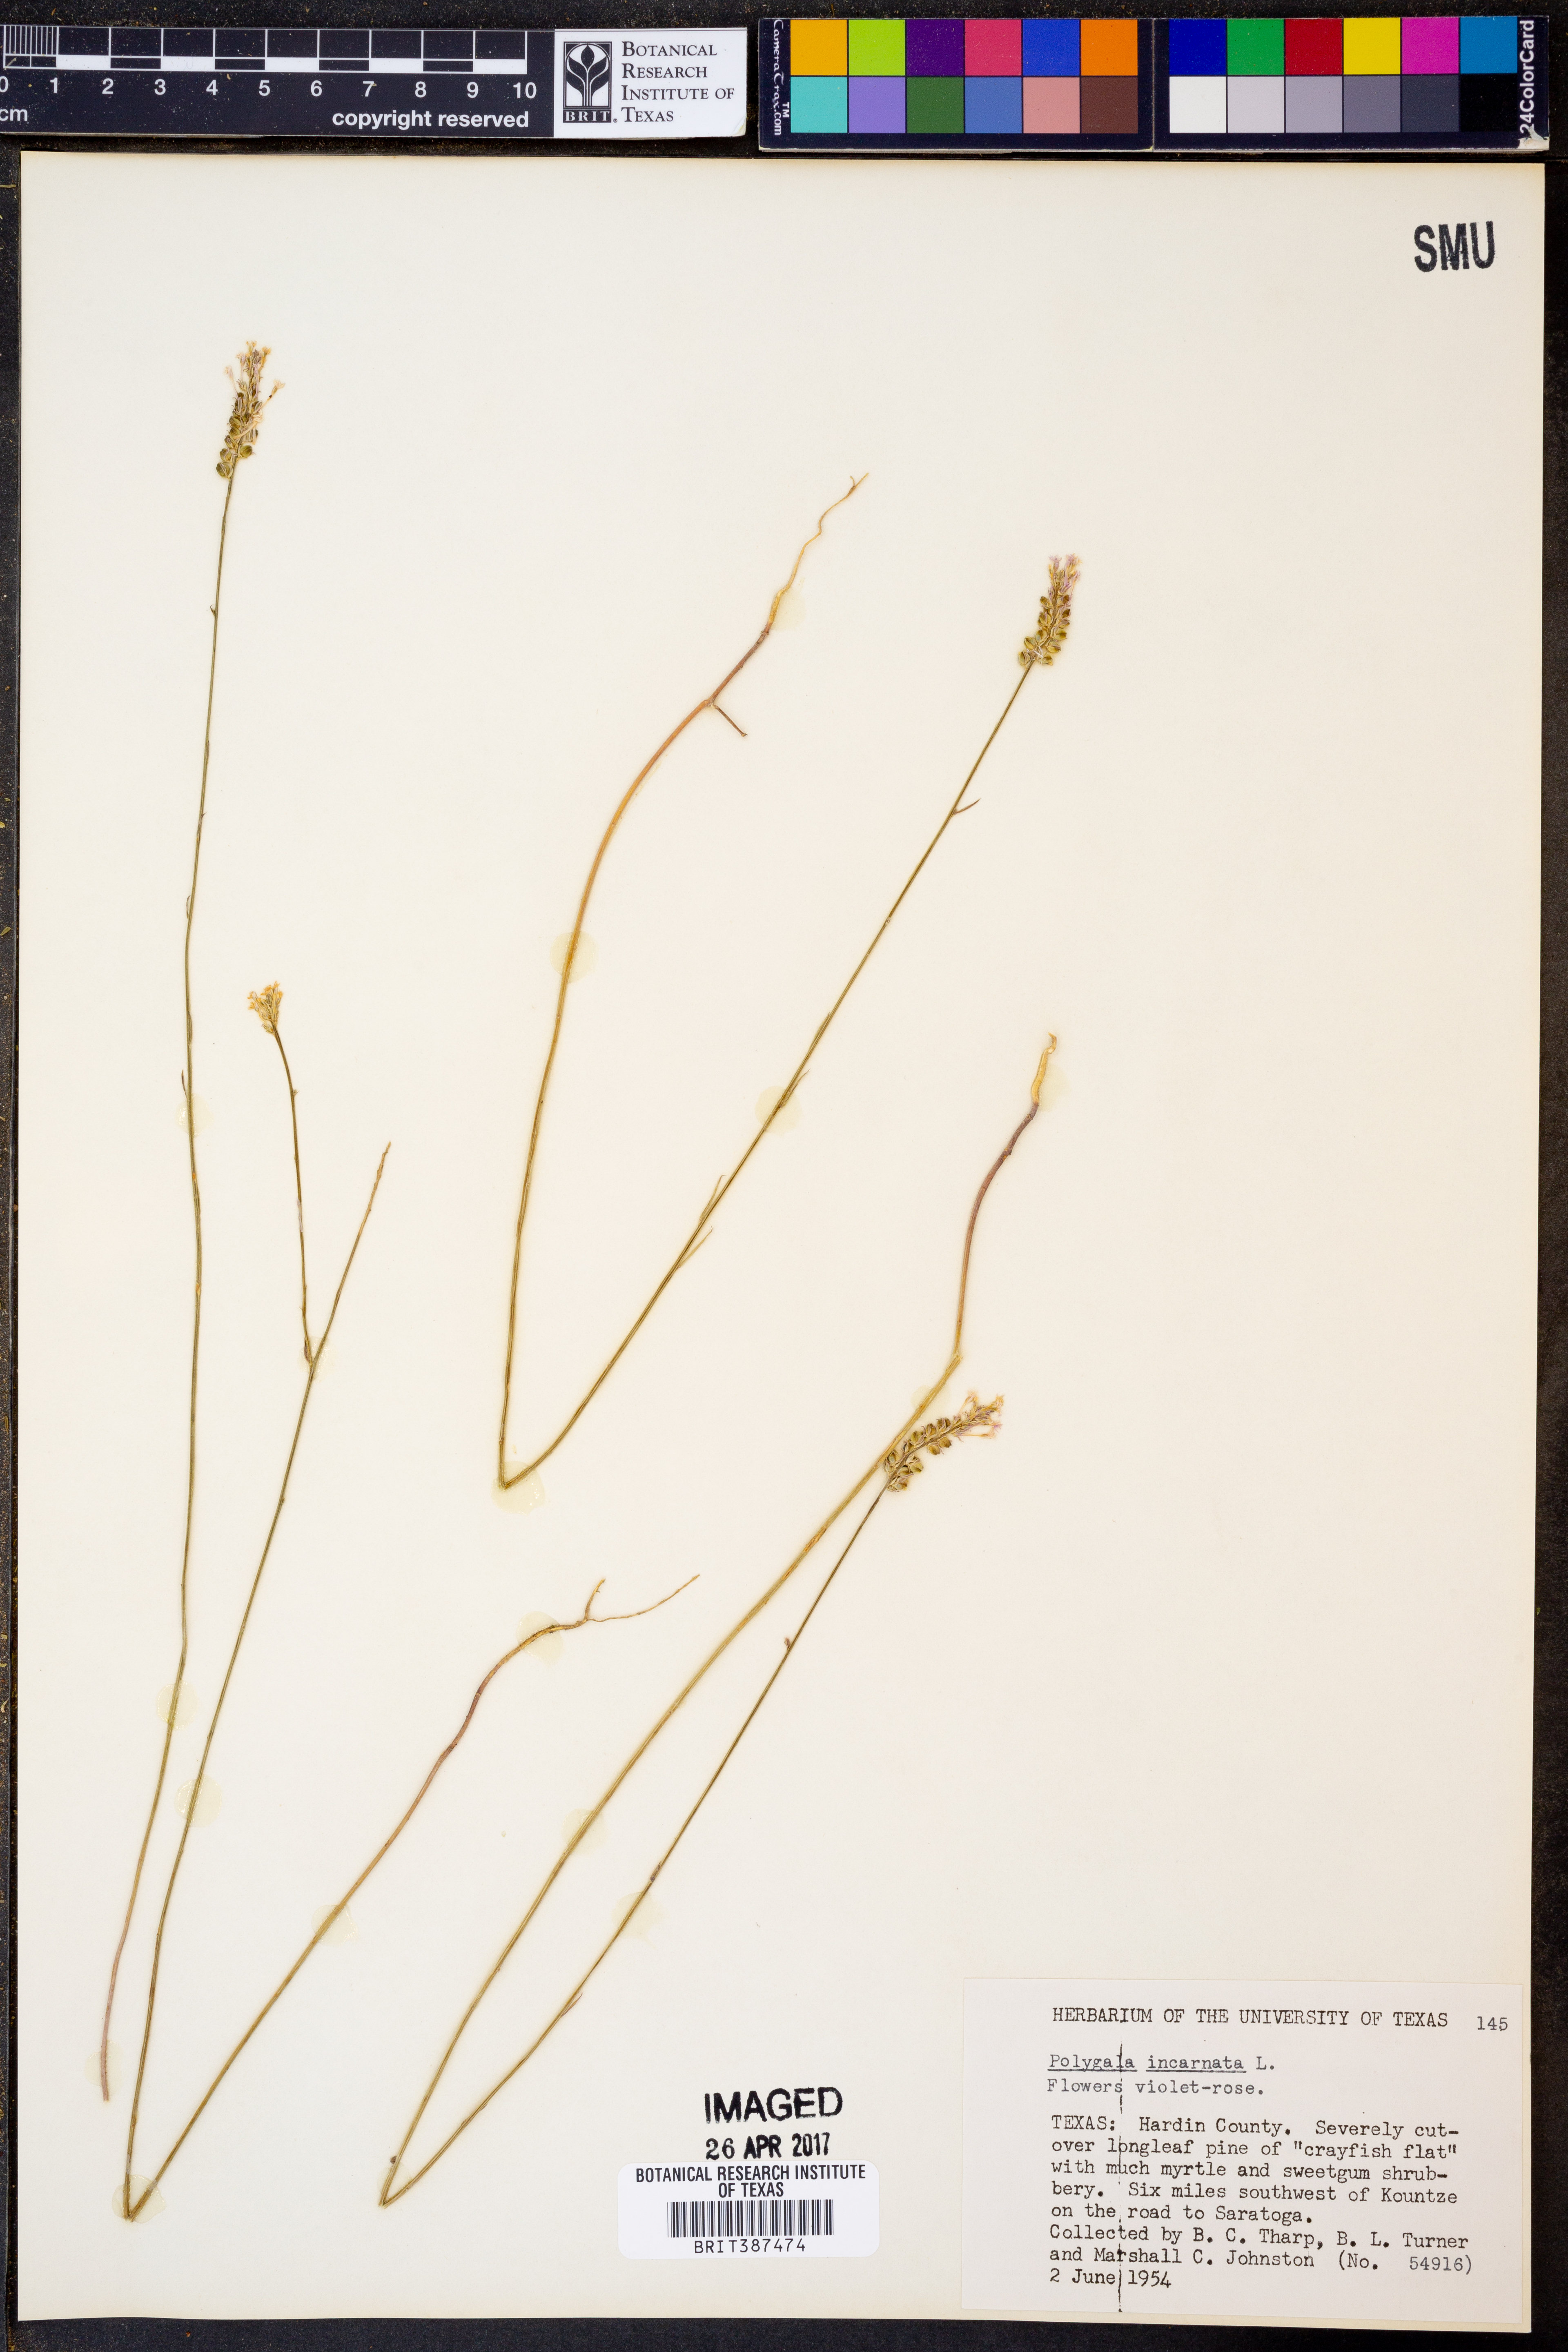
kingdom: Plantae
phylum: Tracheophyta
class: Magnoliopsida
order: Fabales
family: Polygalaceae
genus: Polygala
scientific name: Polygala incarnata
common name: Pink milkwort
